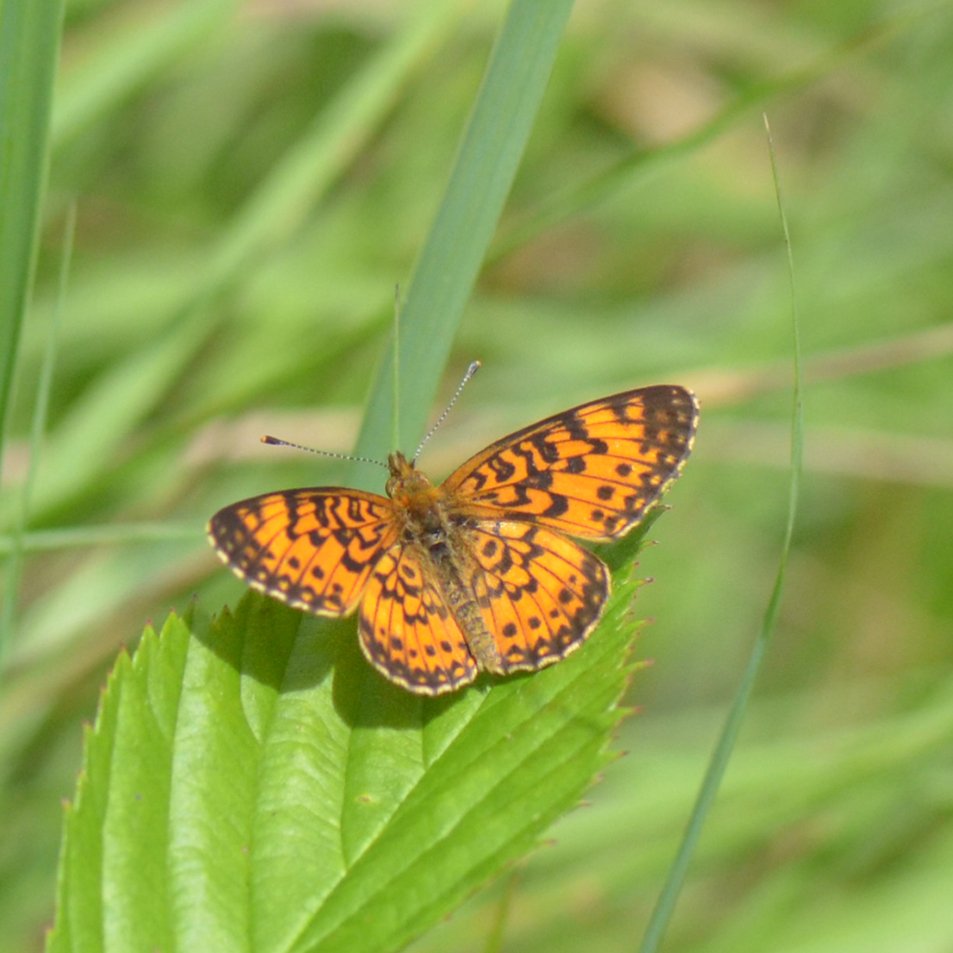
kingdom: Animalia
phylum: Arthropoda
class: Insecta
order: Lepidoptera
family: Nymphalidae
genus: Boloria
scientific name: Boloria selene
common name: Silver-bordered Fritillary
